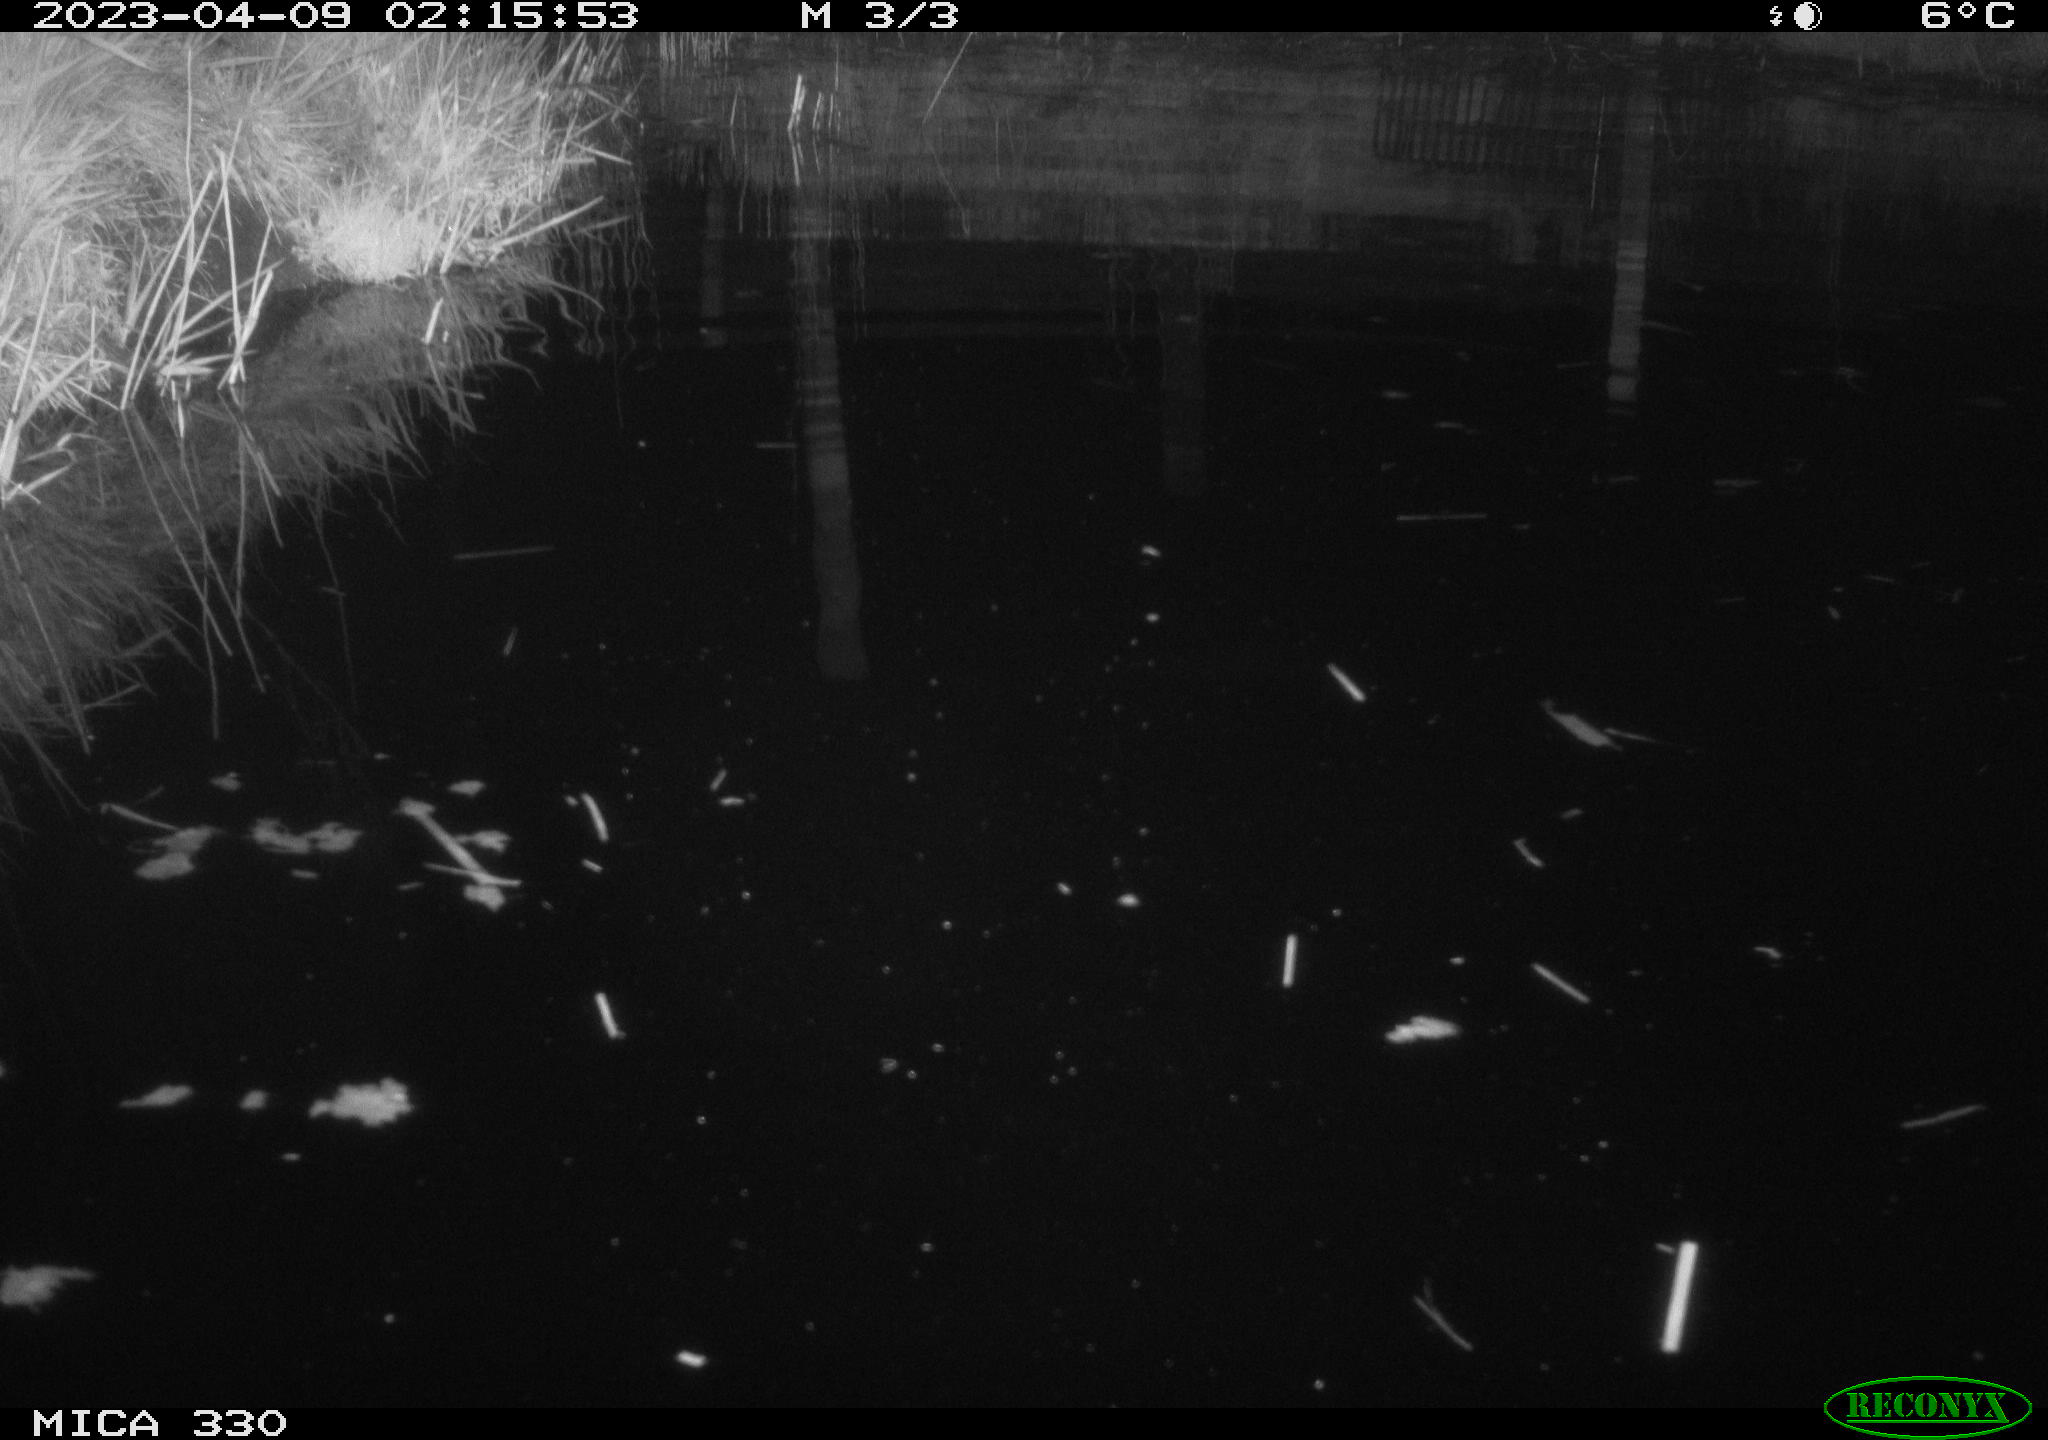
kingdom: Animalia
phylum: Chordata
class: Aves
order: Anseriformes
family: Anatidae
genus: Anas
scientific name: Anas
